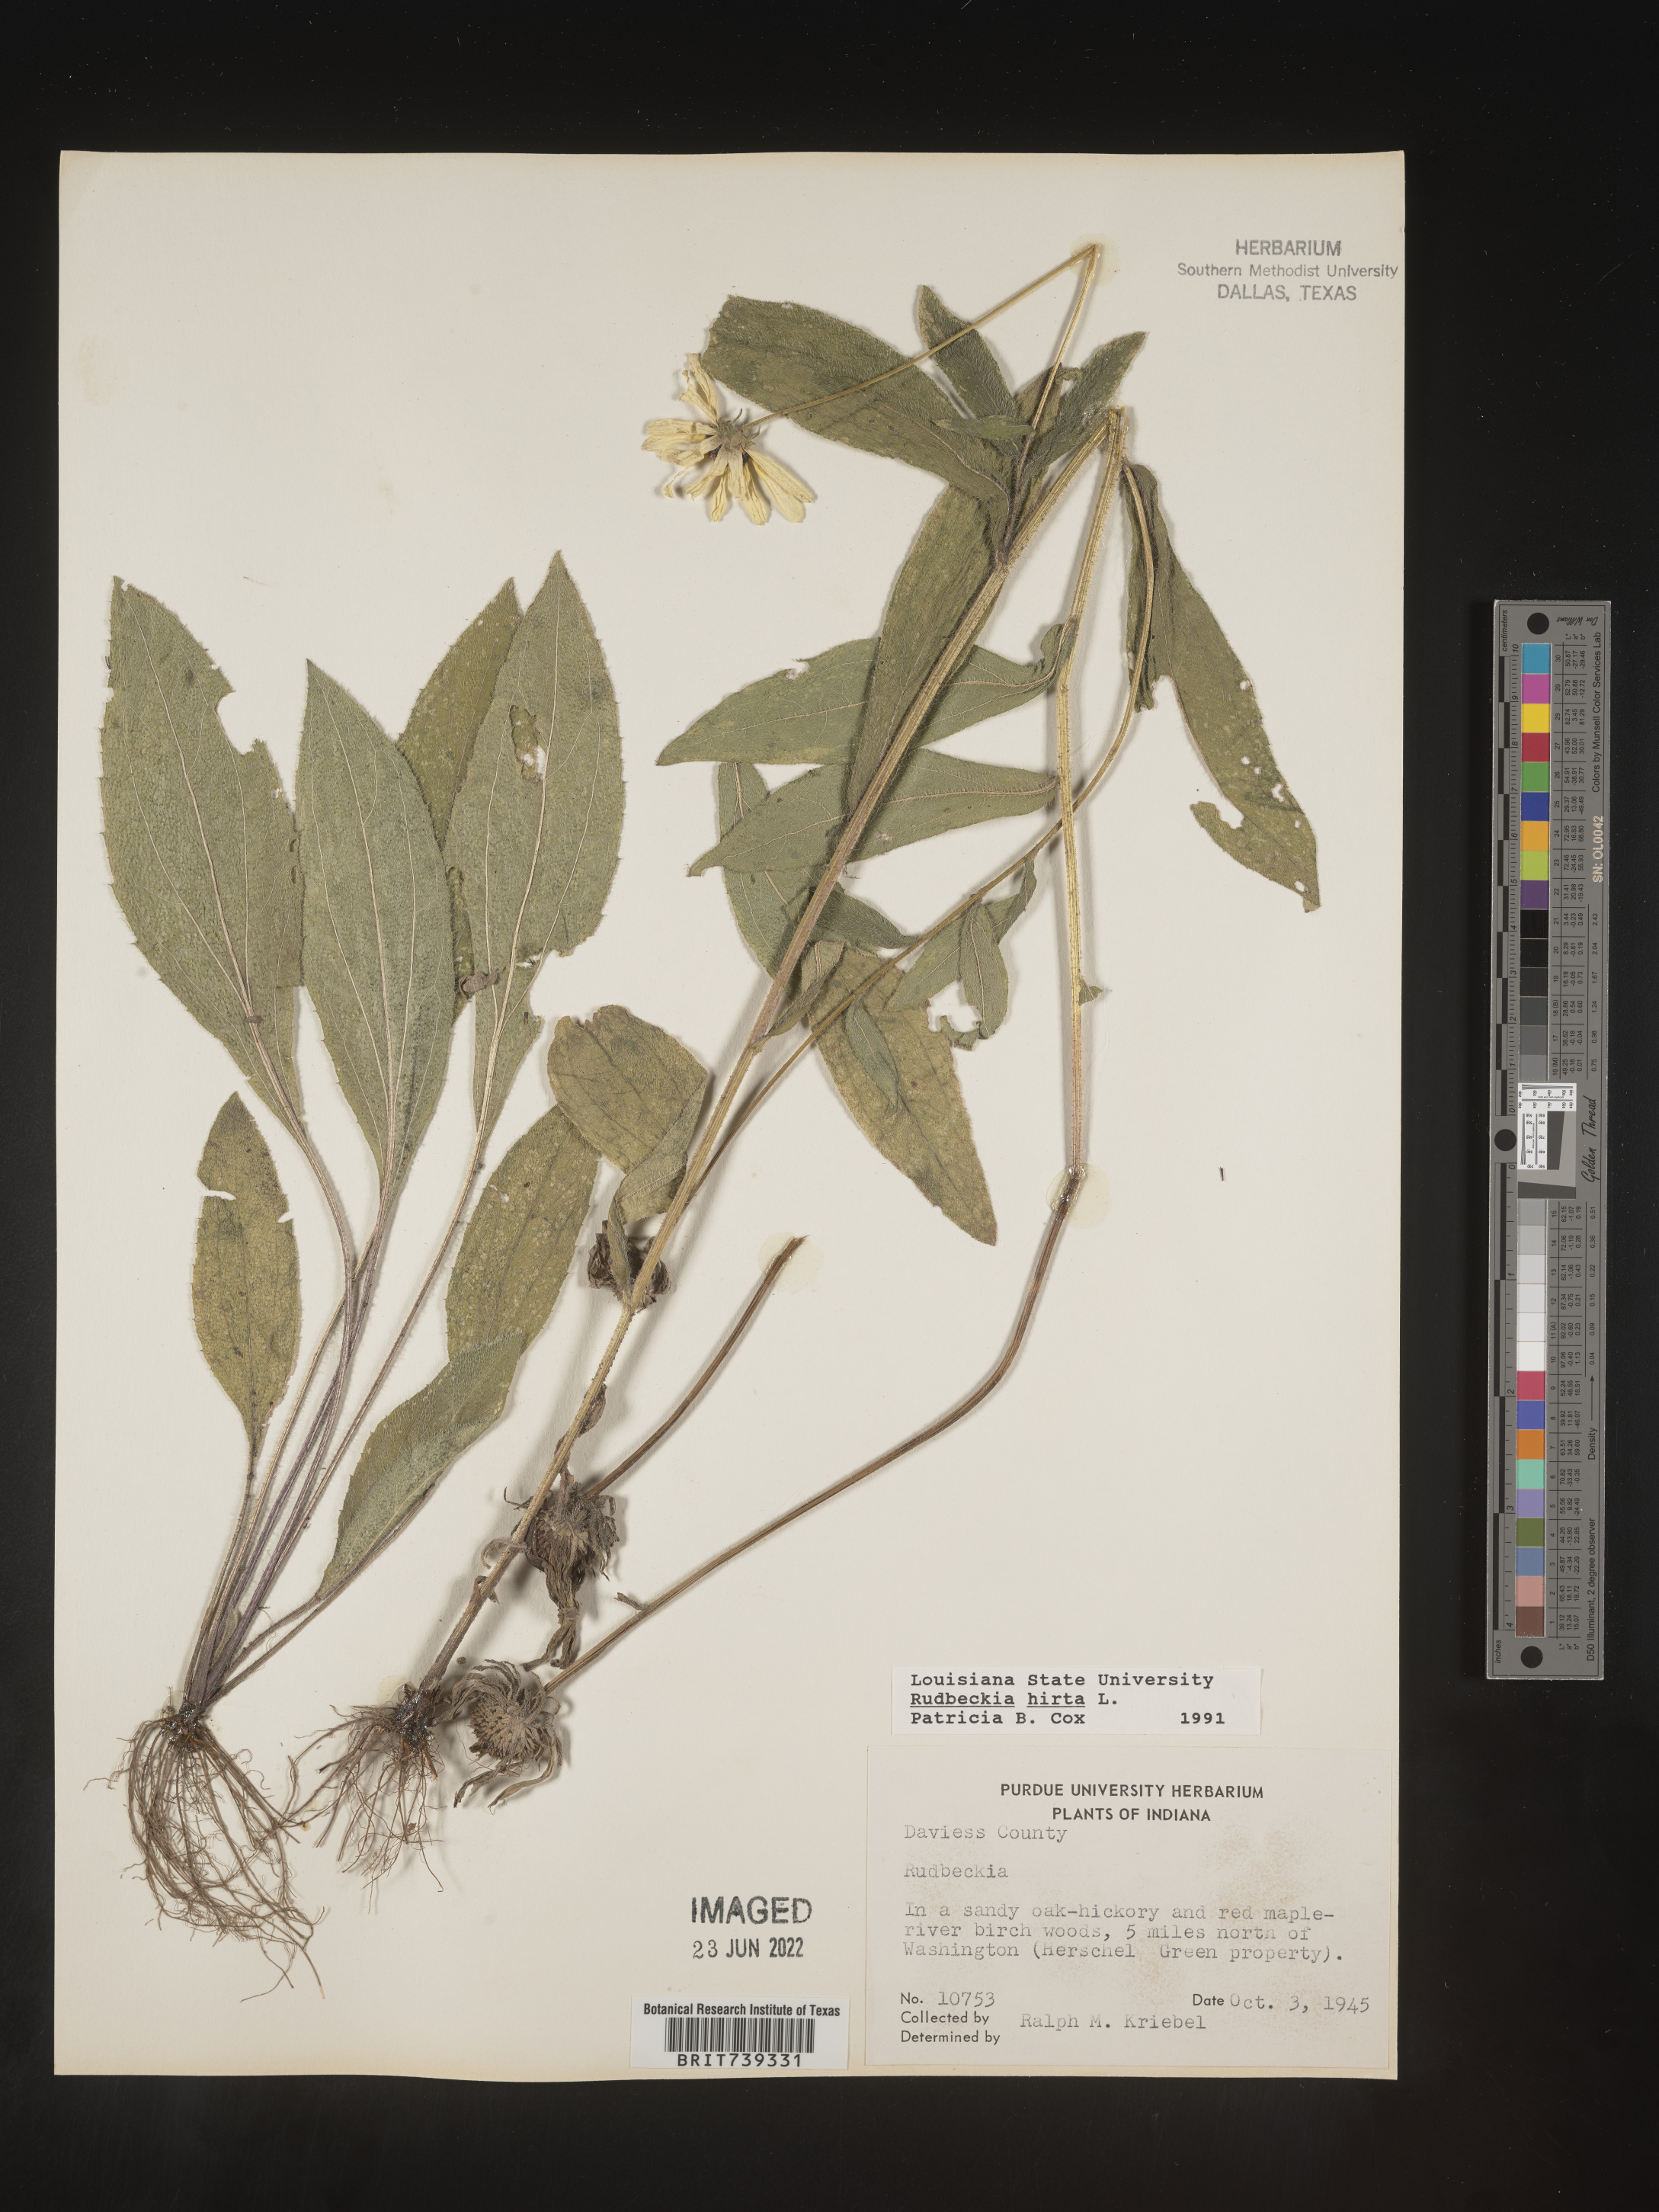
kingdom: Plantae
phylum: Tracheophyta
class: Magnoliopsida
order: Asterales
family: Asteraceae
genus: Rudbeckia
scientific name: Rudbeckia hirta
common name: Black-eyed-susan
